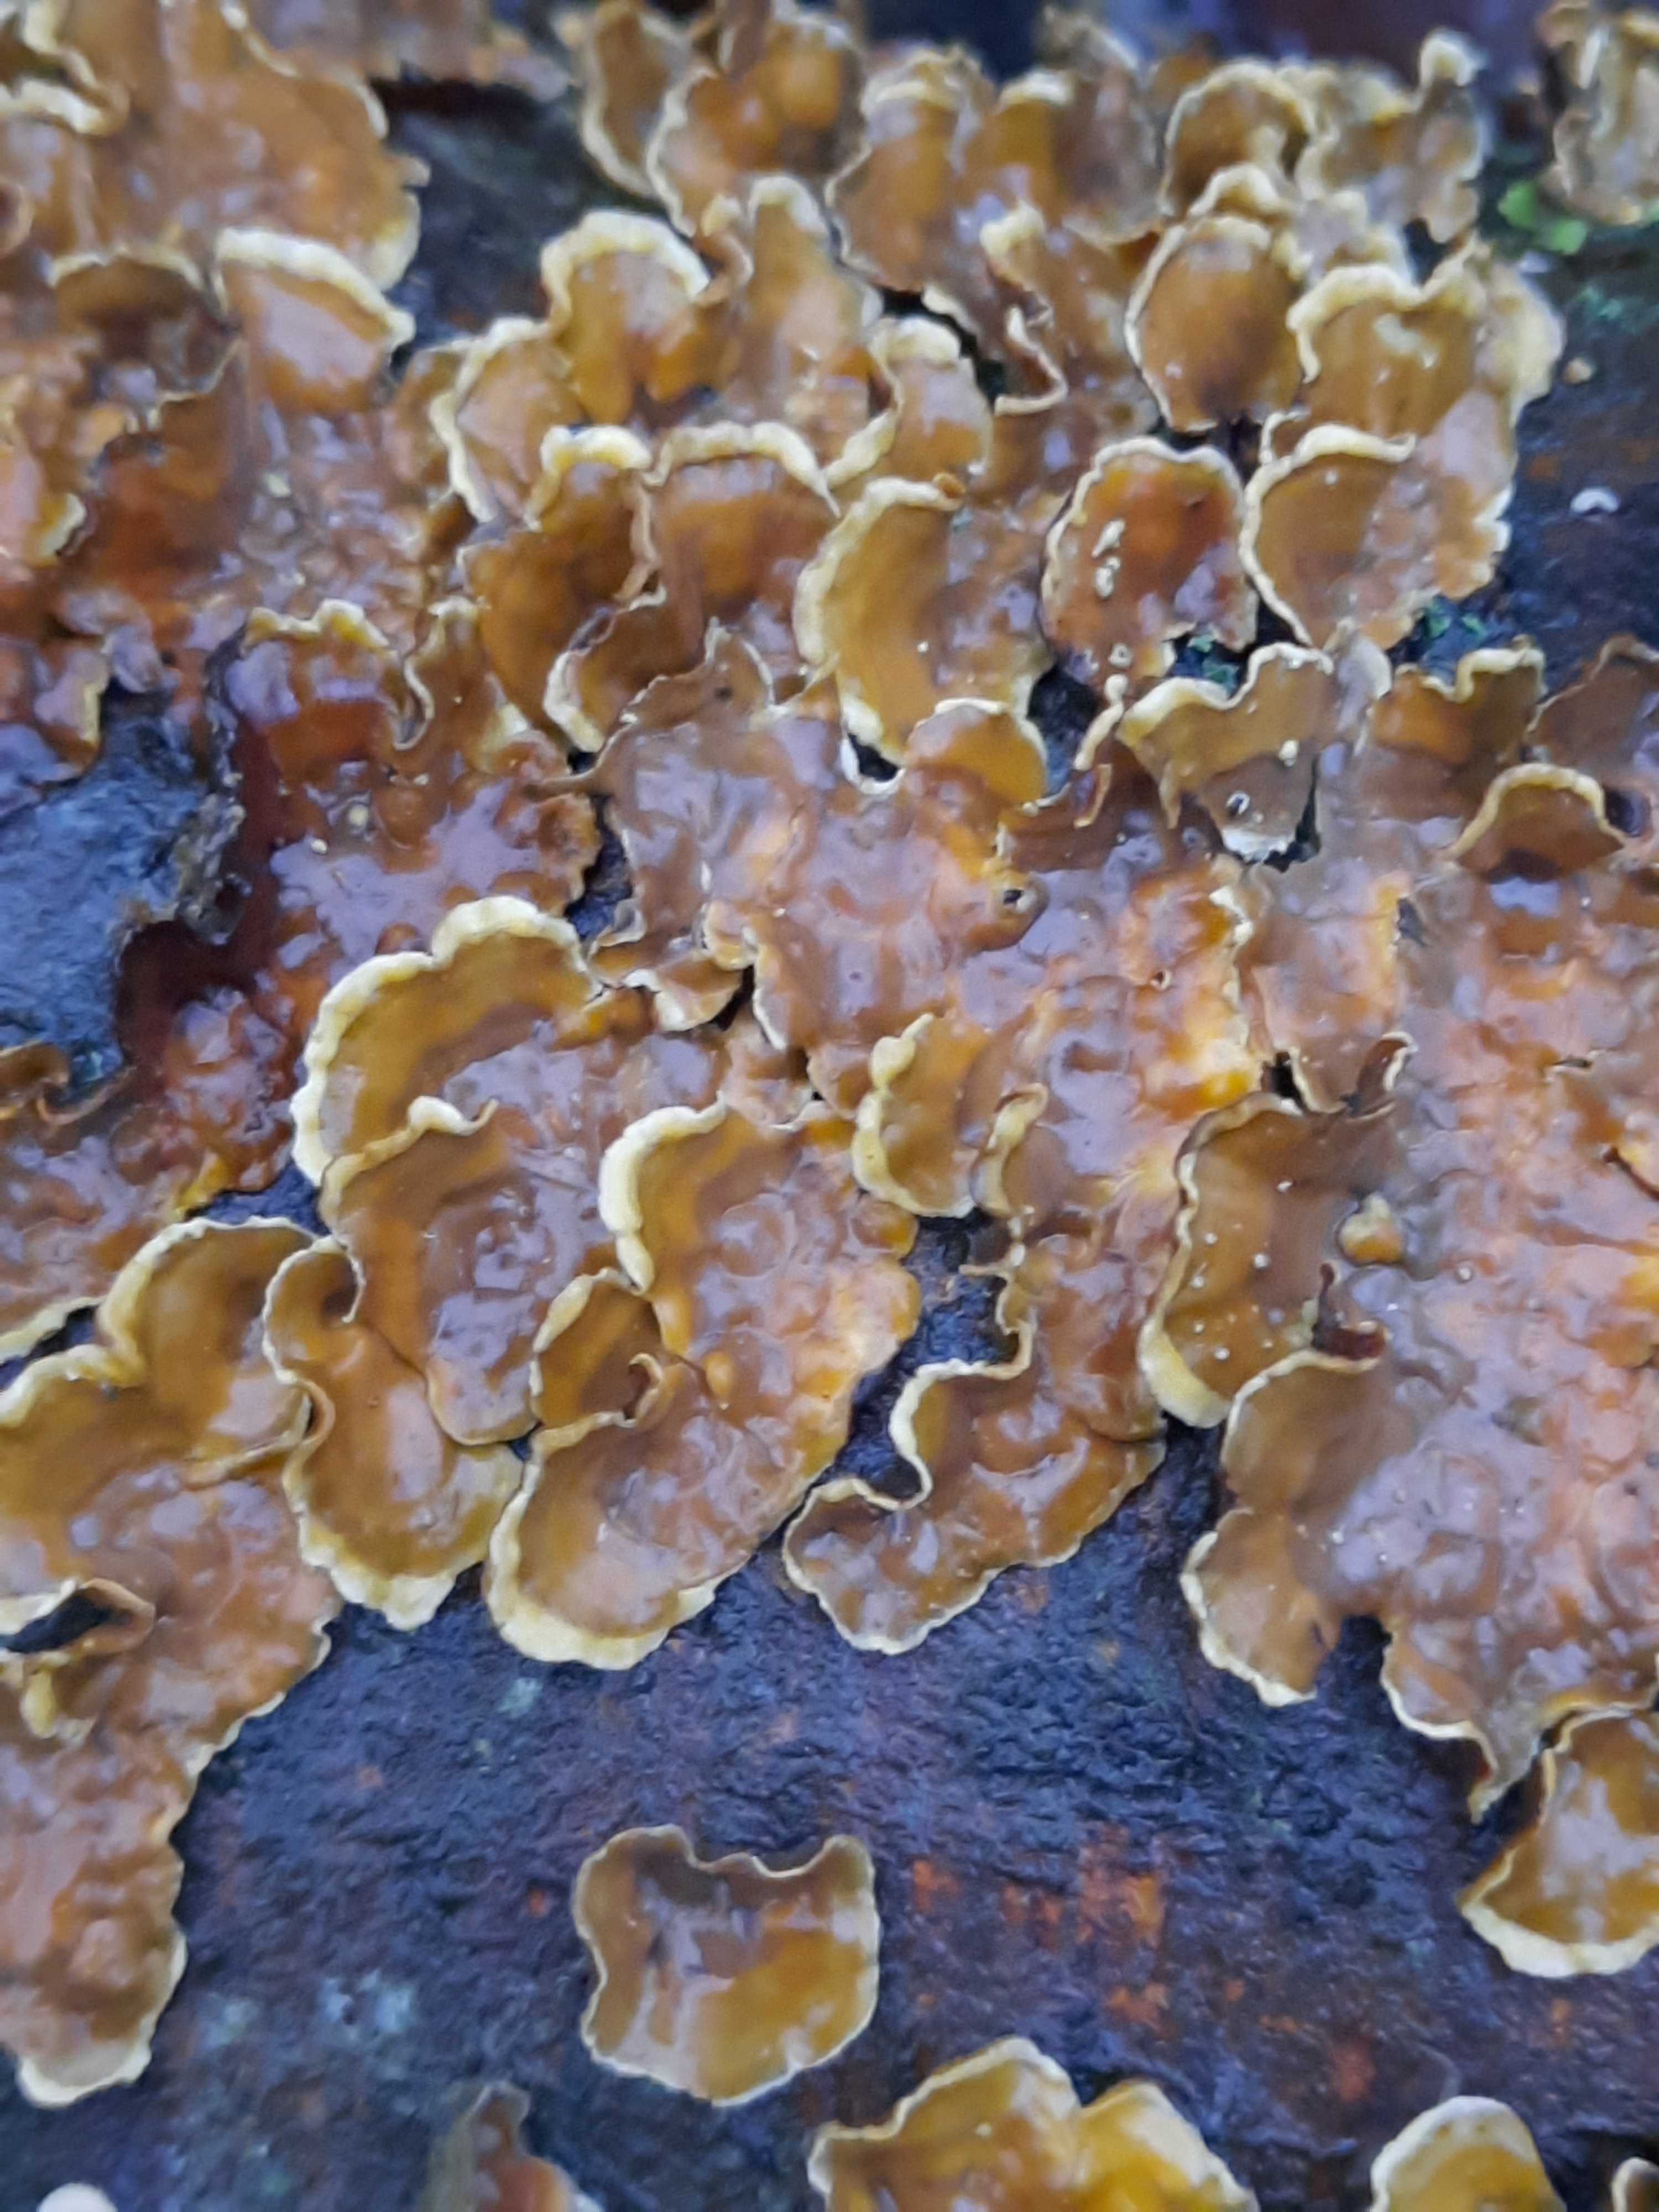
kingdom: Fungi
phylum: Basidiomycota
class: Agaricomycetes
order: Russulales
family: Stereaceae
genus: Stereum
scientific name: Stereum hirsutum
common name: håret lædersvamp
